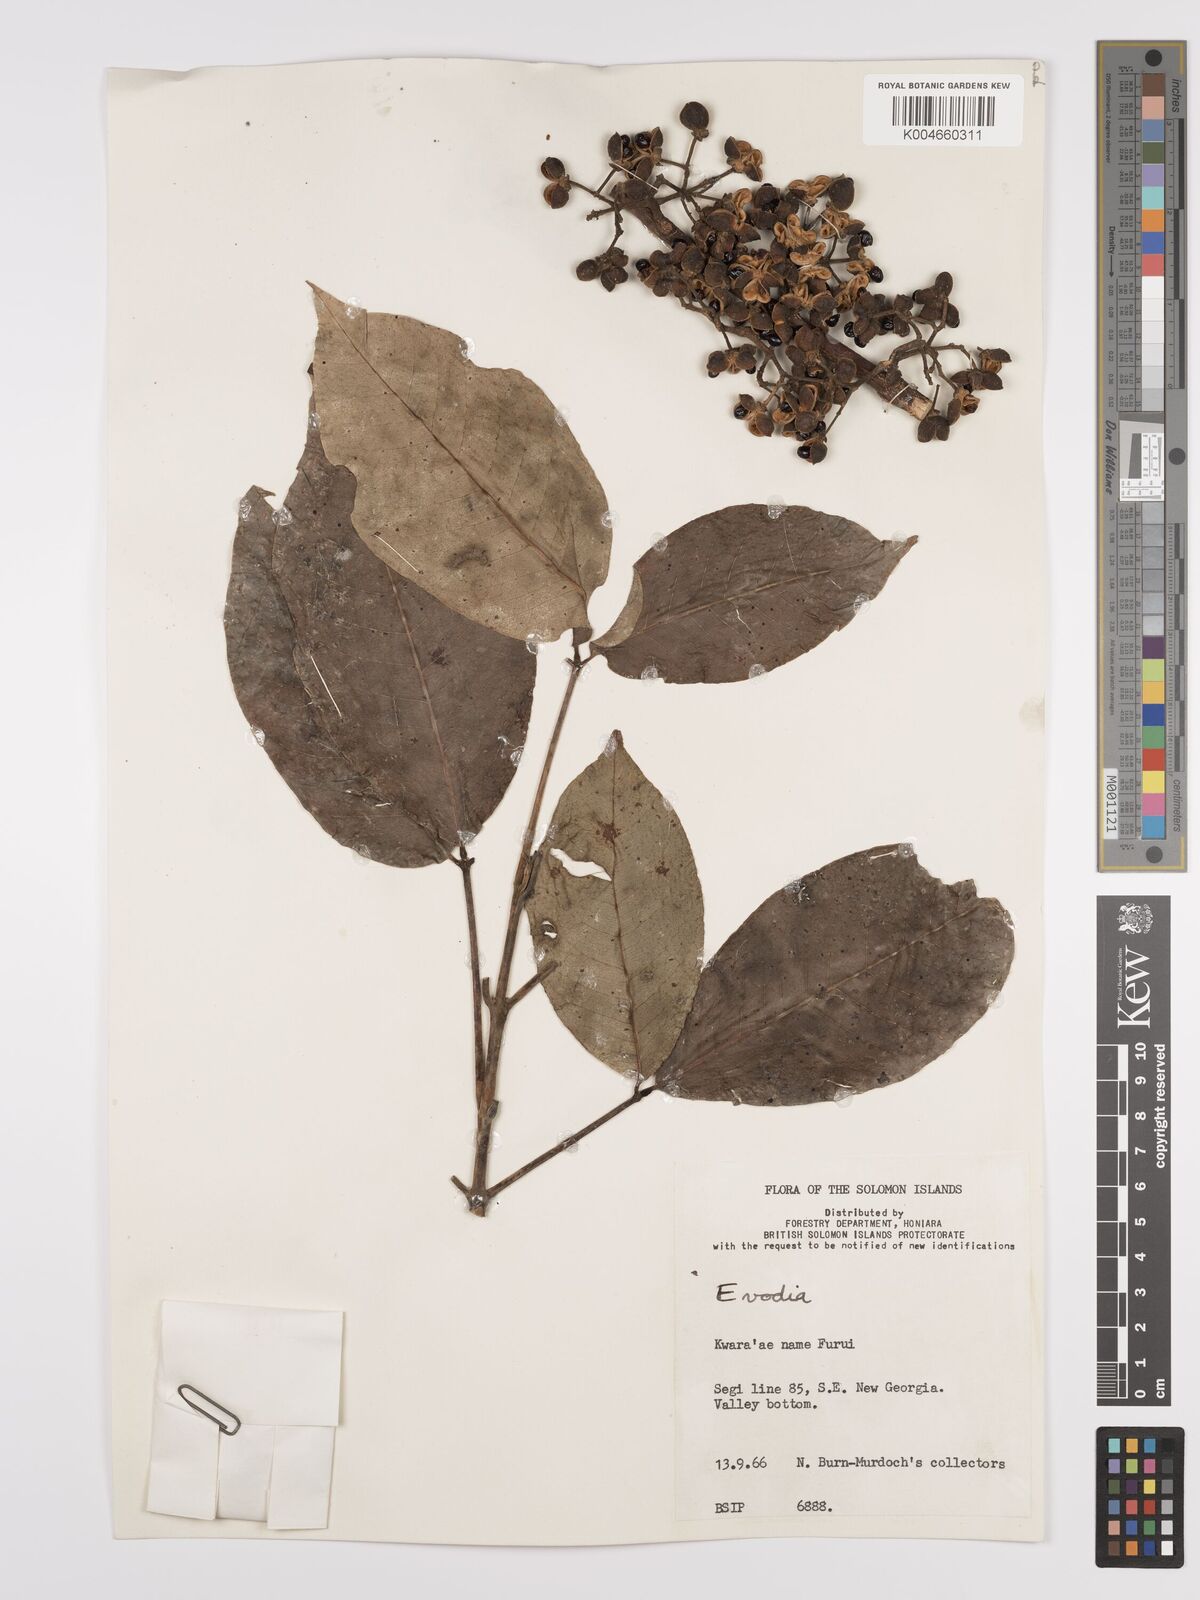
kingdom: Plantae
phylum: Tracheophyta
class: Magnoliopsida
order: Sapindales
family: Rutaceae
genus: Euodia
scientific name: Euodia
